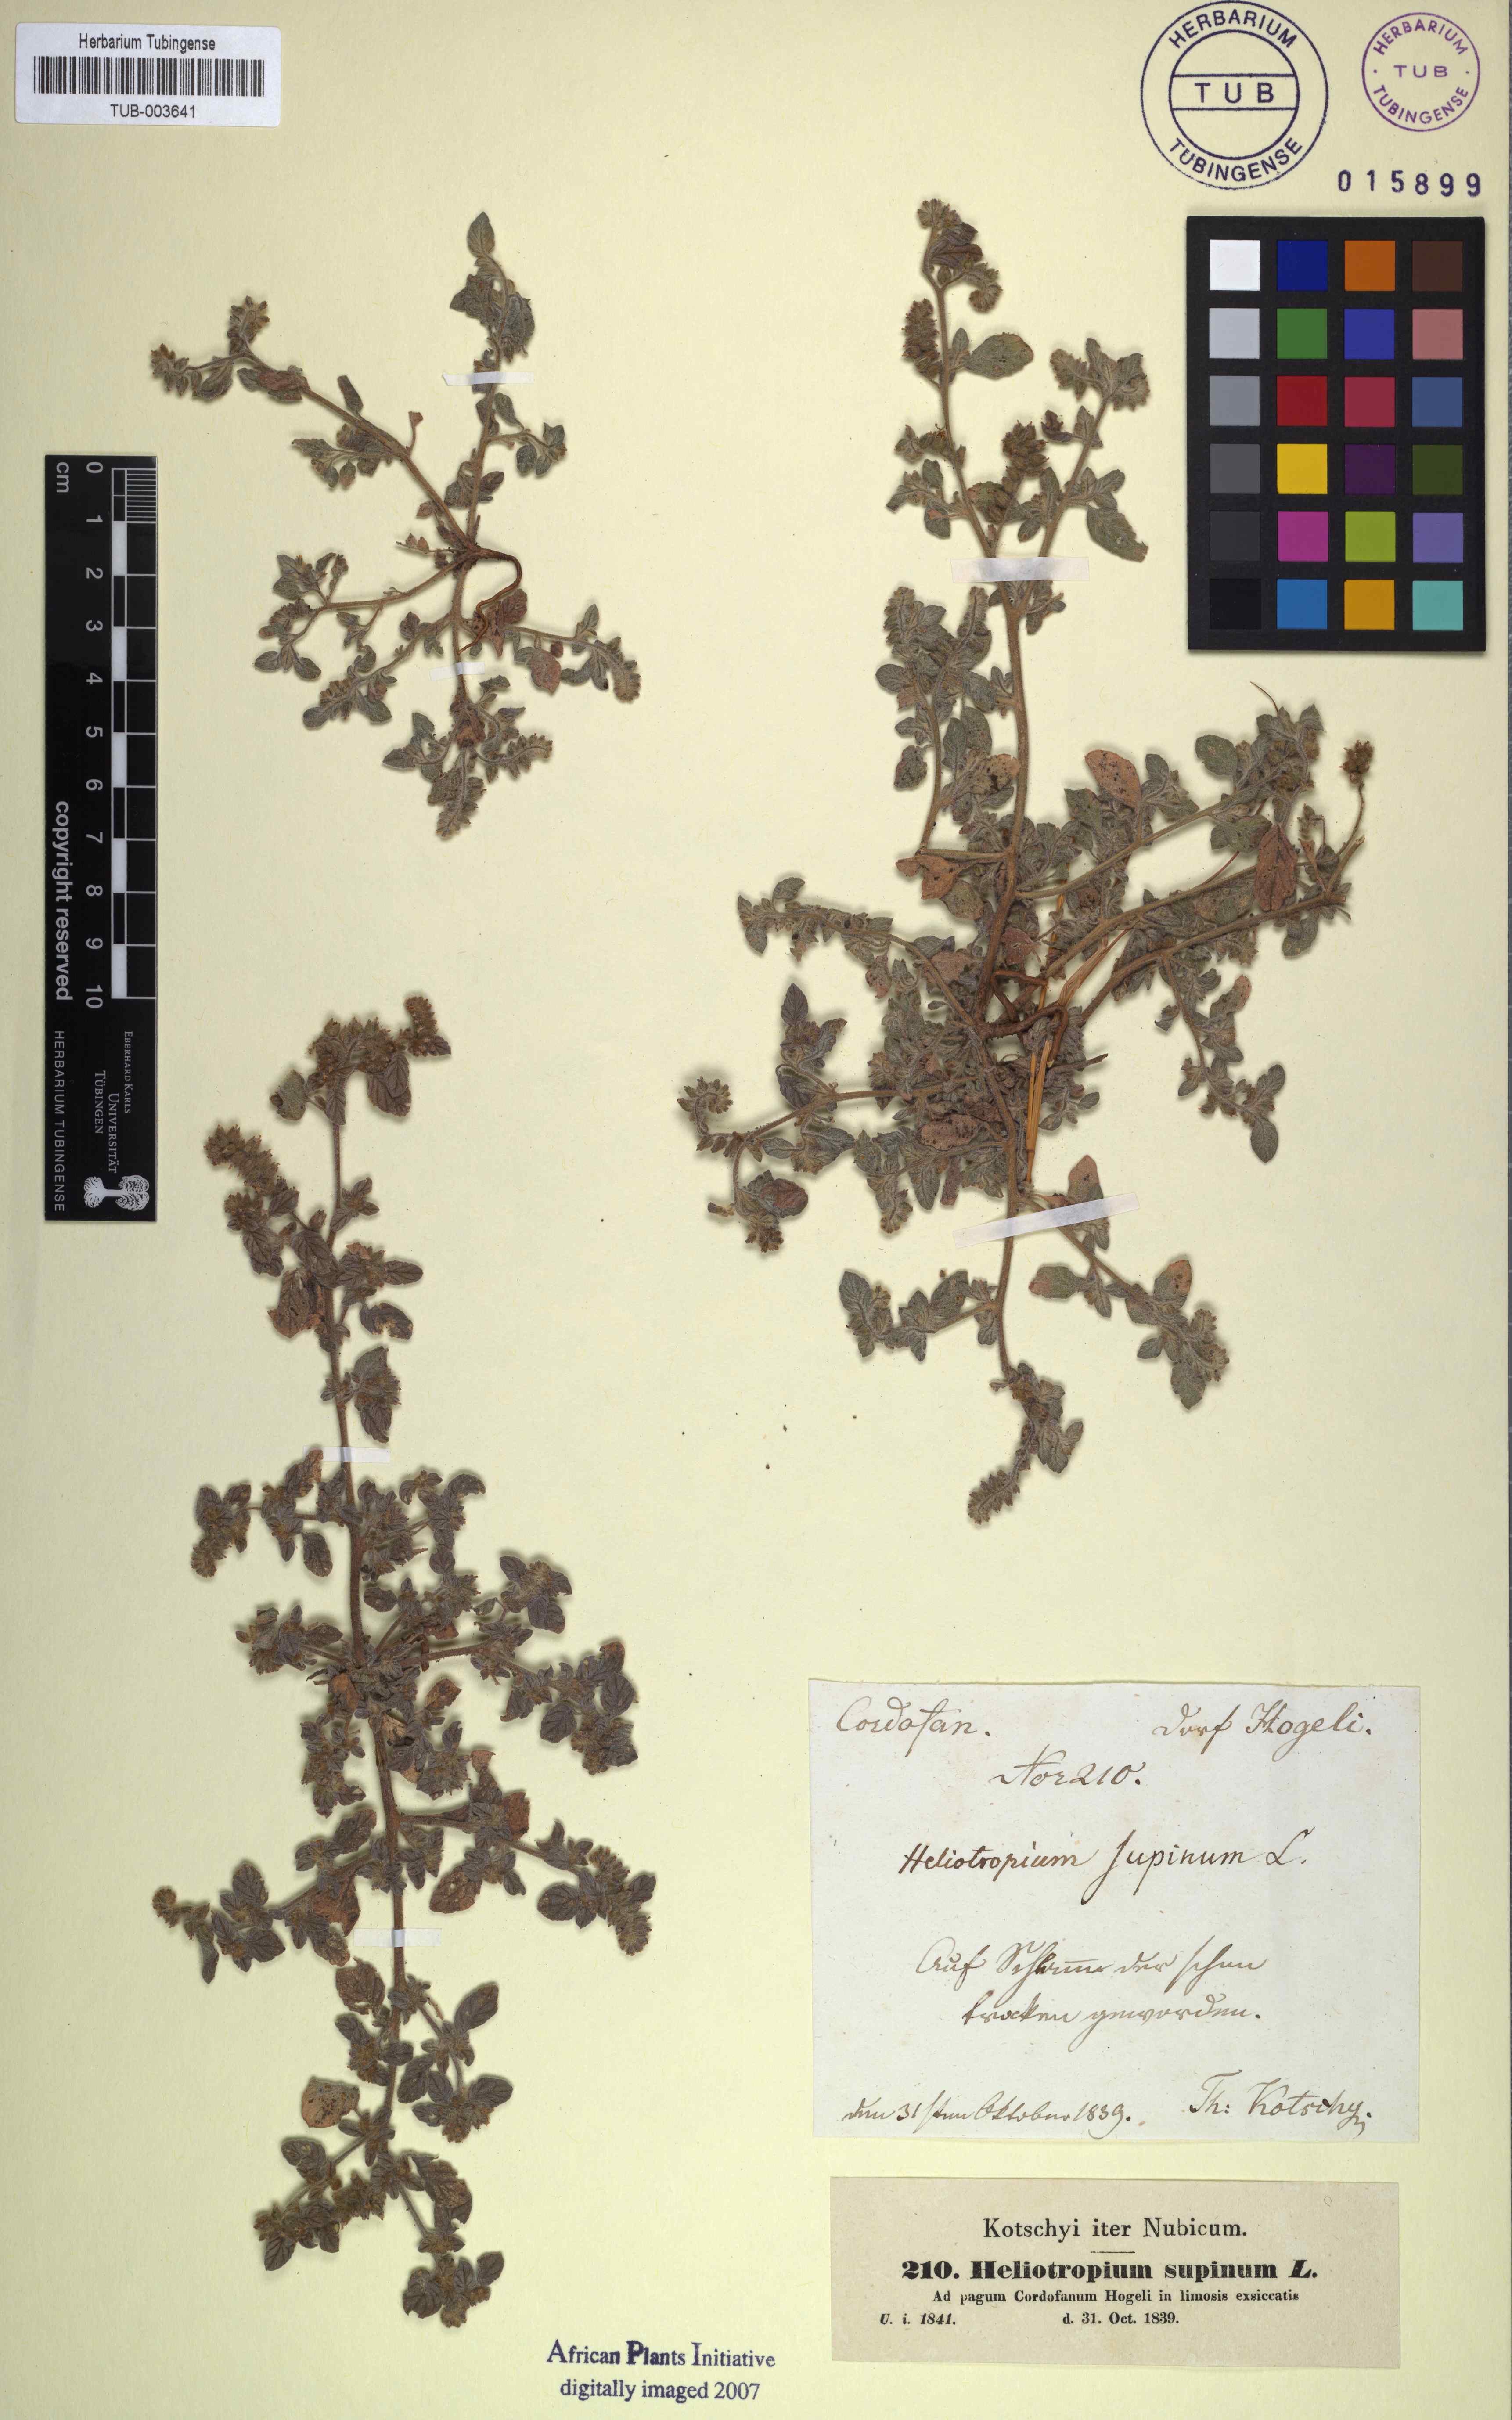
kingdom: Plantae
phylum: Tracheophyta
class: Magnoliopsida
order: Boraginales
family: Heliotropiaceae
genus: Heliotropium
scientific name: Heliotropium supinum
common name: Dwarf heliotrope
